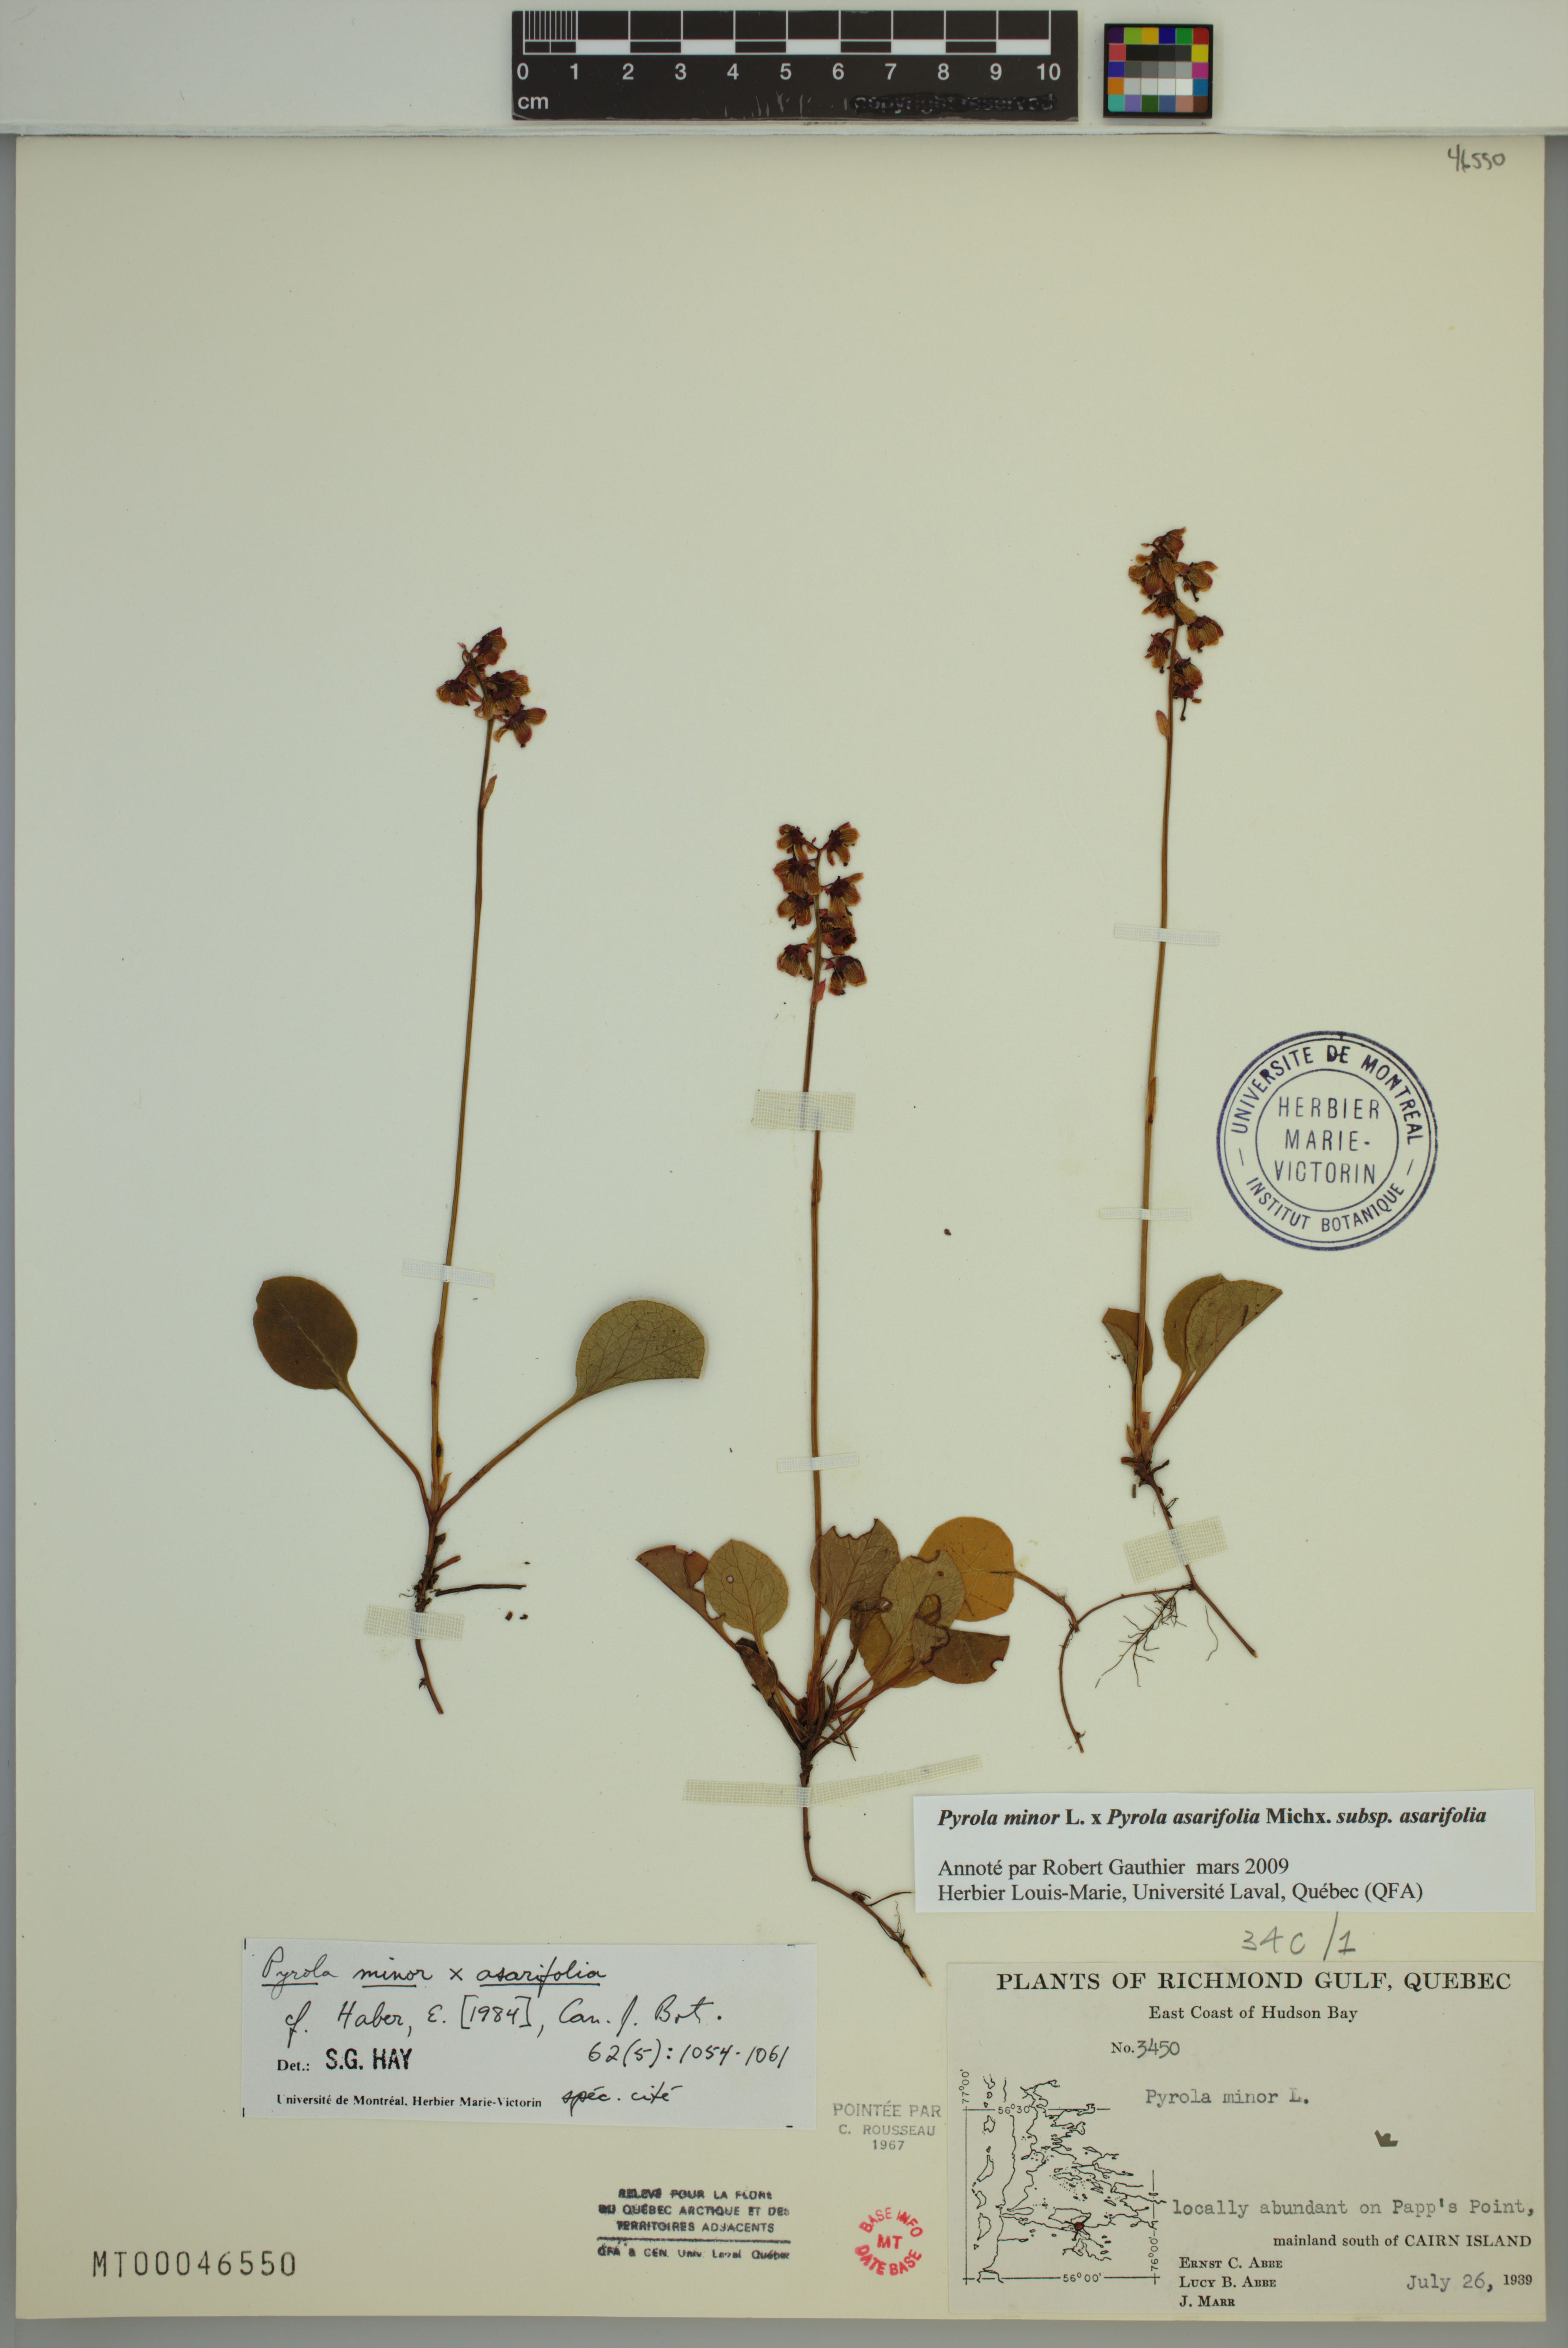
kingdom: Plantae
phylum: Tracheophyta
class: Magnoliopsida
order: Ericales
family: Ericaceae
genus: Pyrola
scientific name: Pyrola asarifolia
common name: Bog wintergreen
